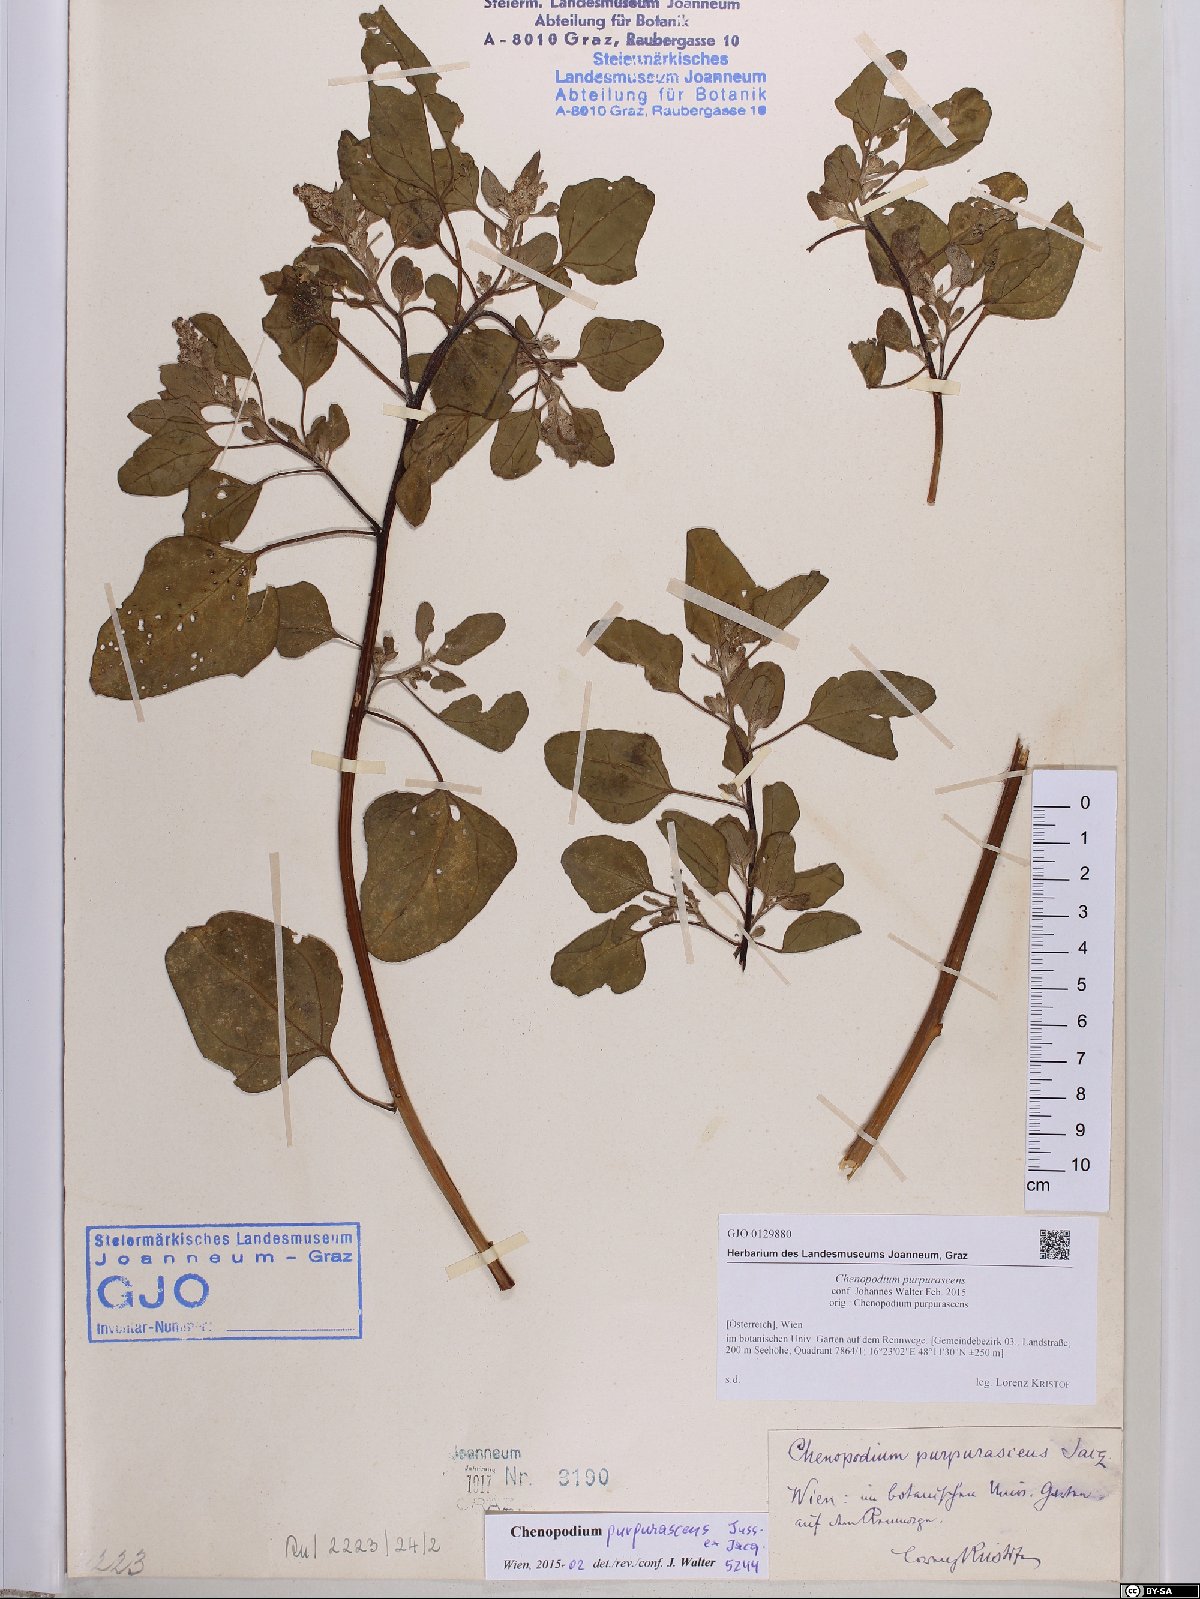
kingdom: Plantae
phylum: Tracheophyta
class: Magnoliopsida
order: Caryophyllales
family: Amaranthaceae
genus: Chenopodium
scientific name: Chenopodium quinoa
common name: Quinoa
